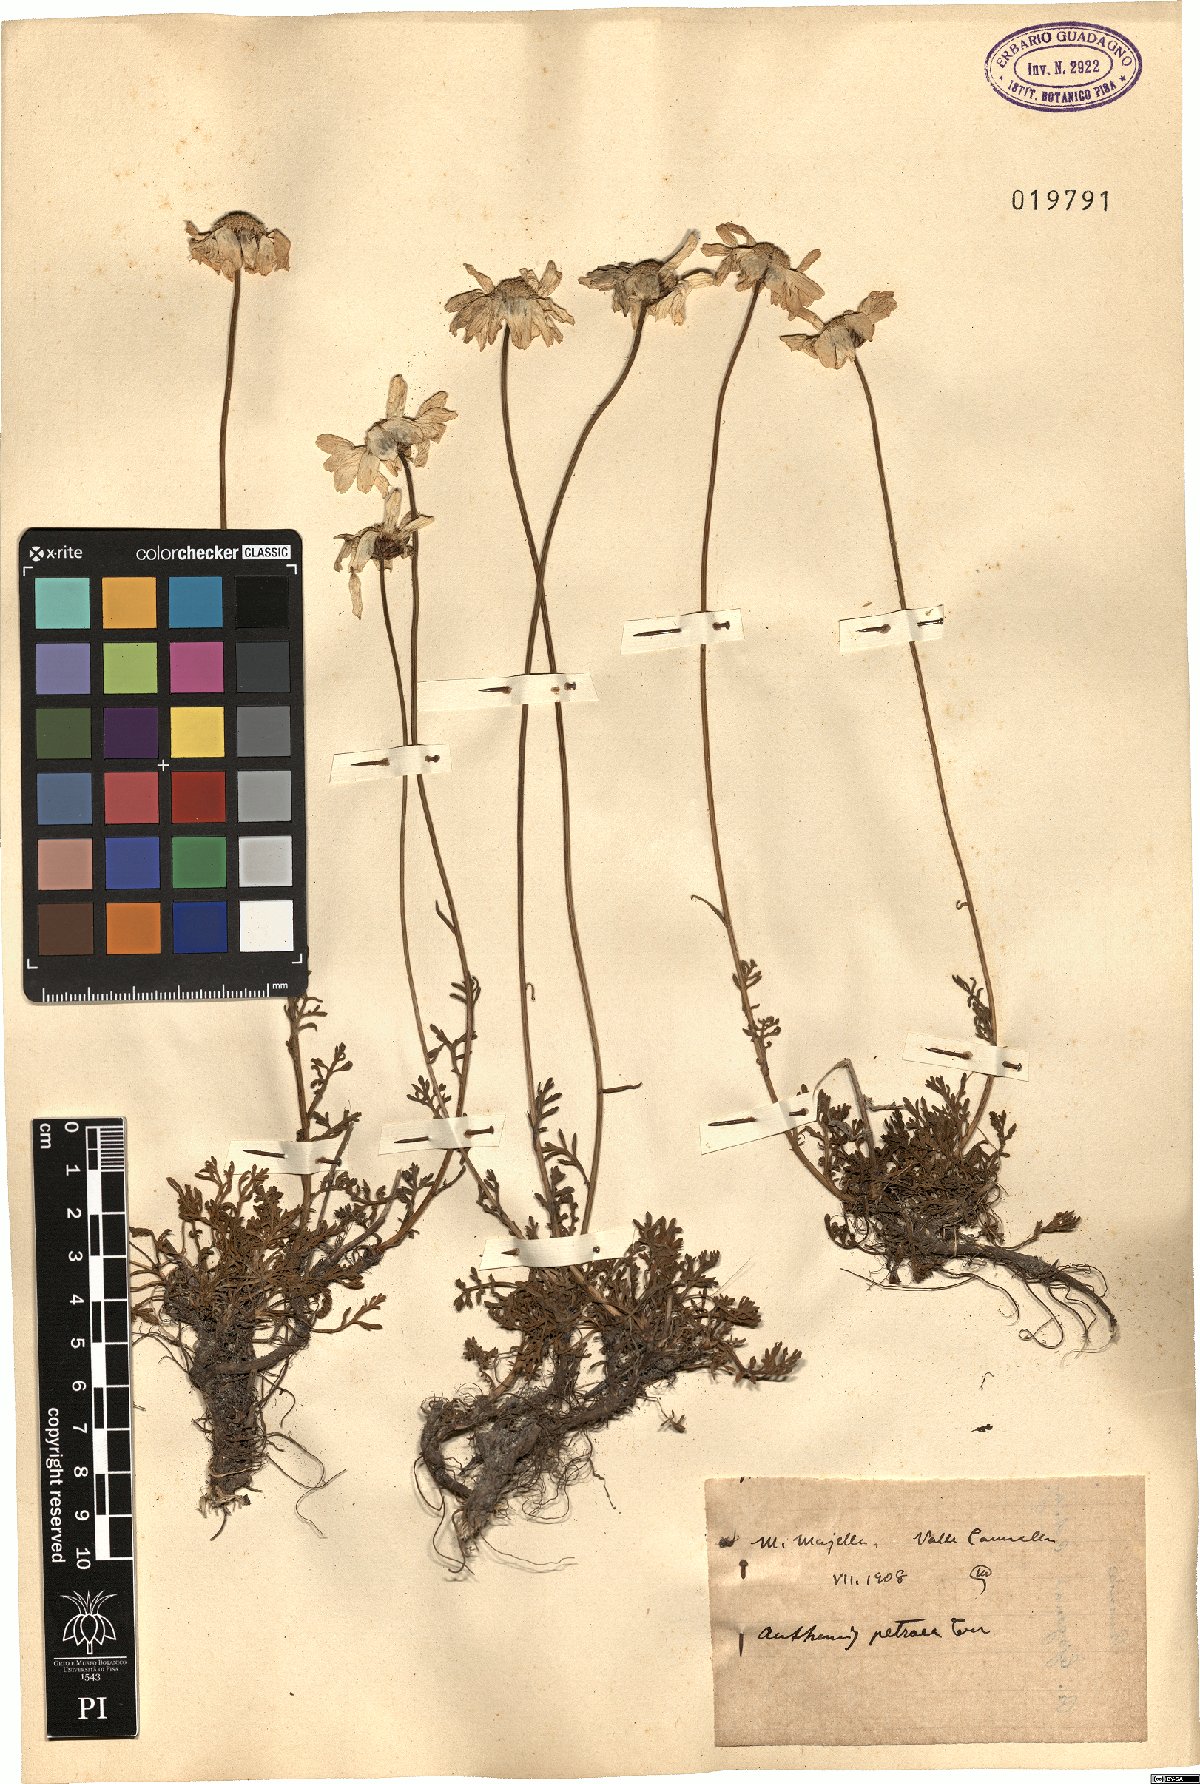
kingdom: Plantae
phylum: Tracheophyta
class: Magnoliopsida
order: Asterales
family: Asteraceae
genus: Anthemis
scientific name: Anthemis cretica
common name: Mountain dog-daisy
